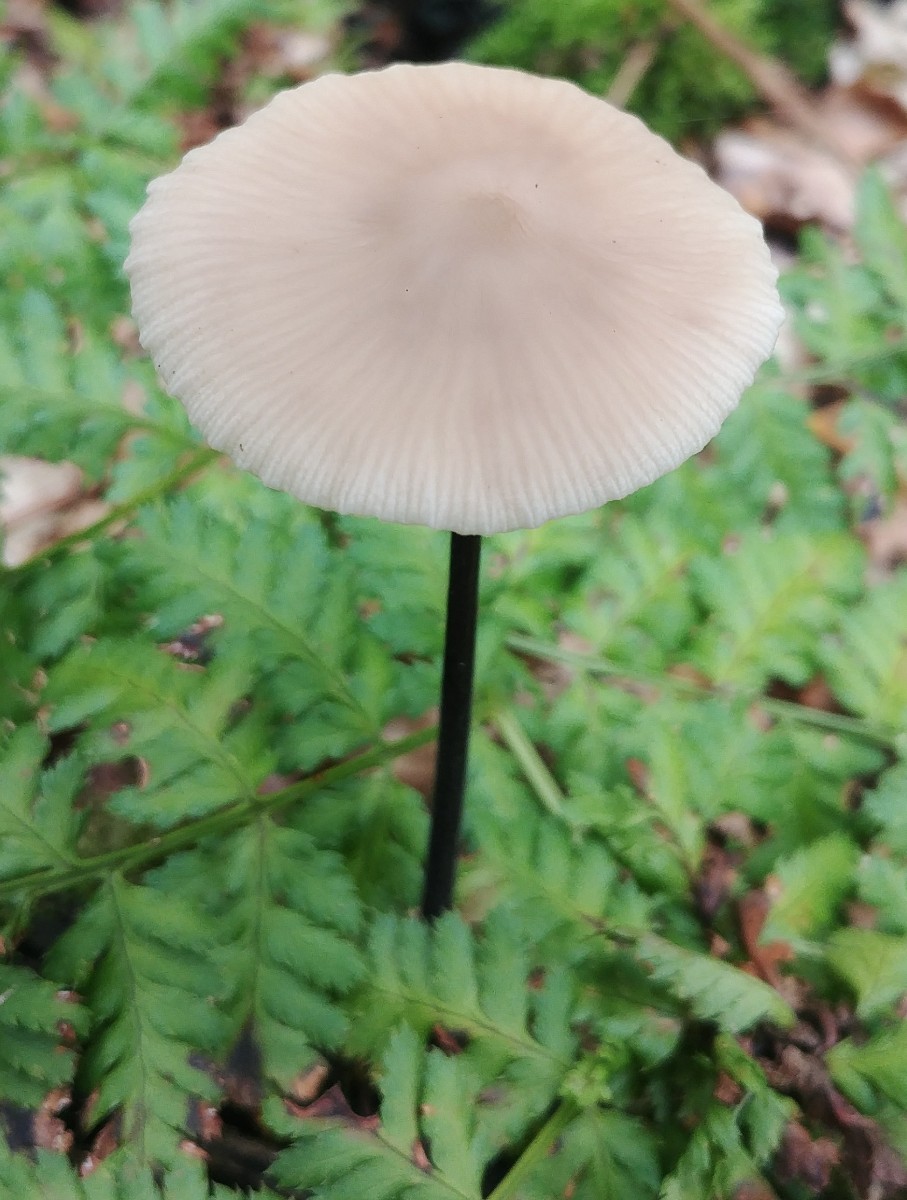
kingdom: Fungi
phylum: Basidiomycota
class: Agaricomycetes
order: Agaricales
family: Omphalotaceae
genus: Mycetinis
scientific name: Mycetinis alliaceus
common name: stor løghat
